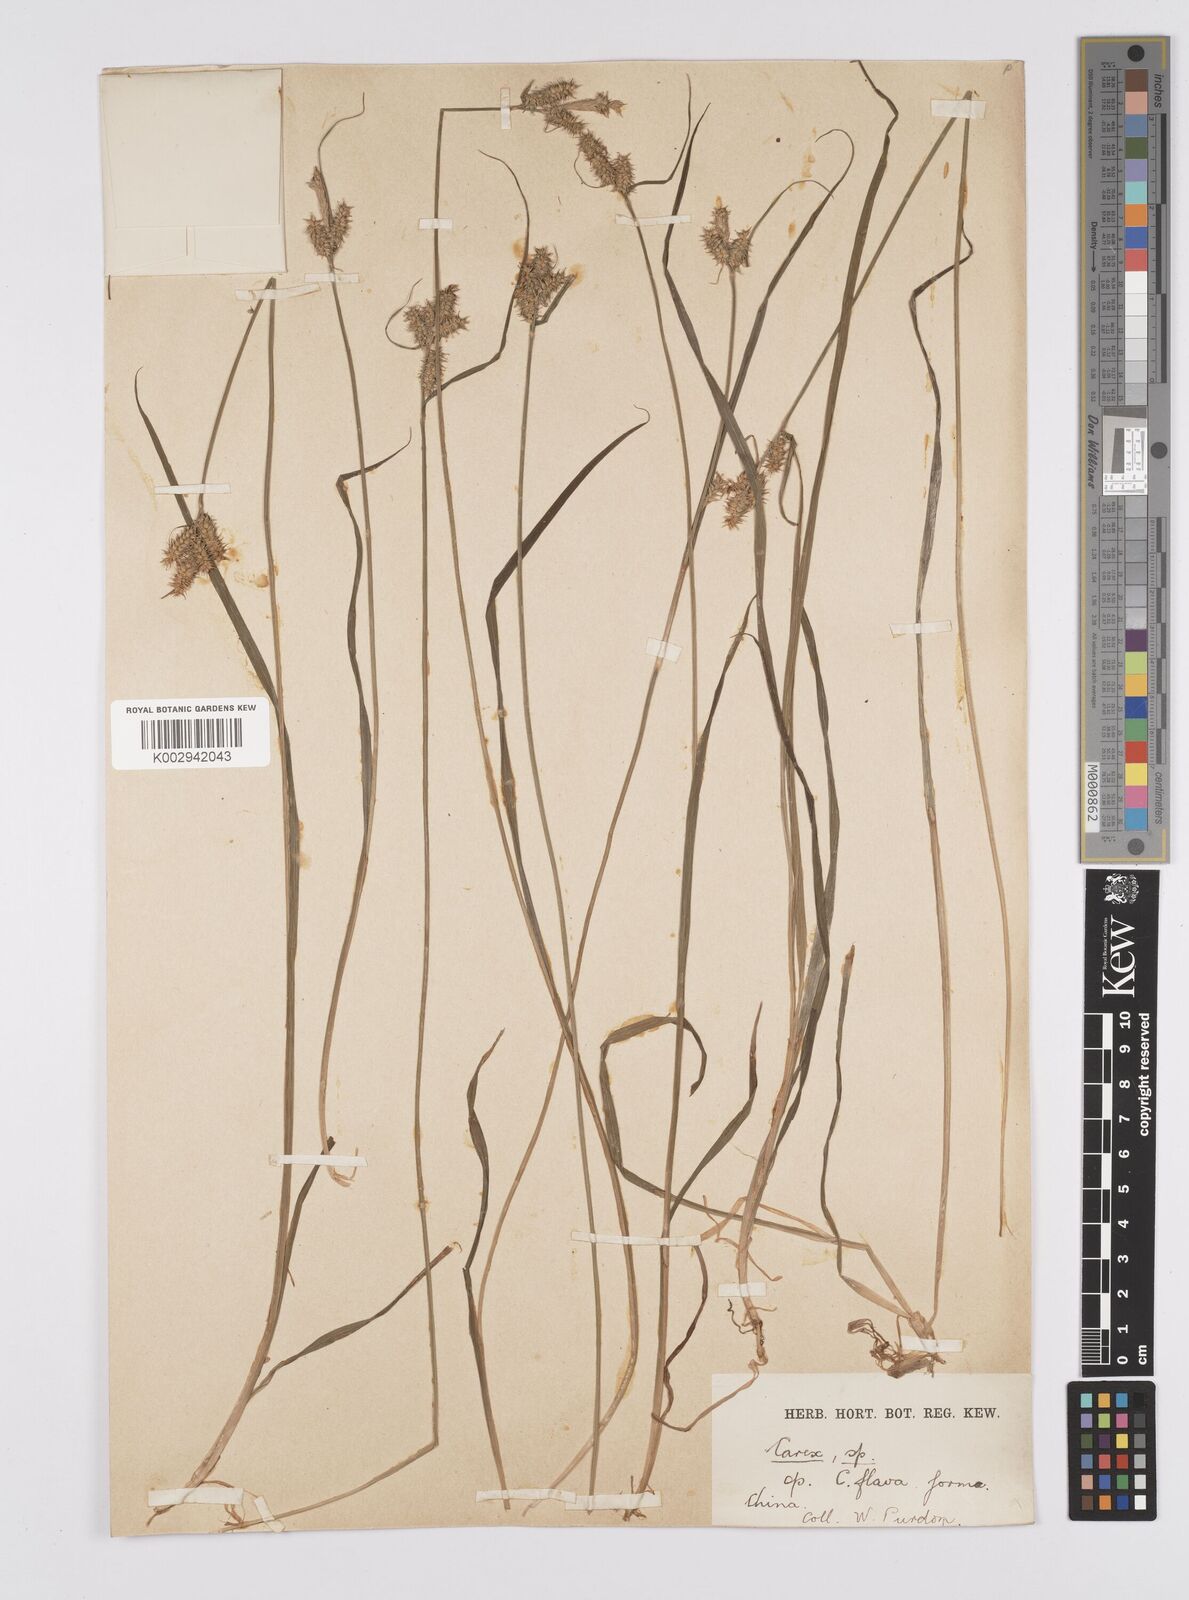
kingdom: Plantae
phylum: Tracheophyta
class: Liliopsida
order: Poales
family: Cyperaceae
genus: Carex
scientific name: Carex agglomerata
